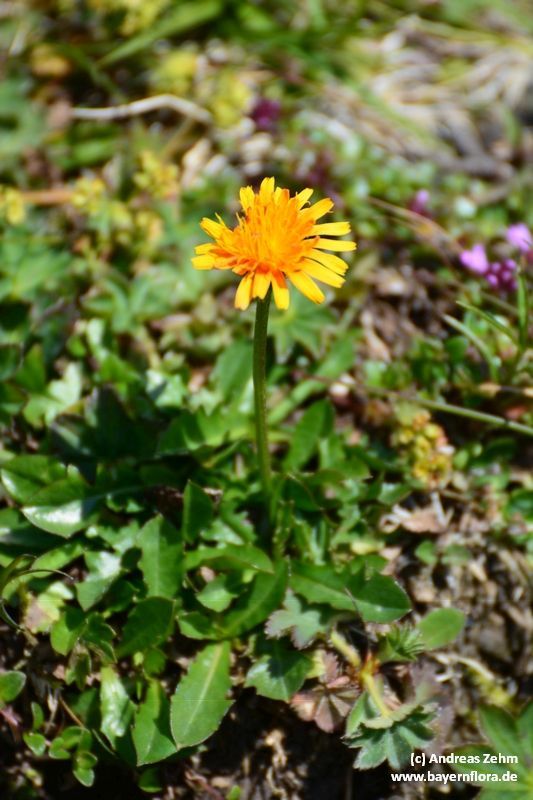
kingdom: Plantae
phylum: Tracheophyta
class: Magnoliopsida
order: Asterales
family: Asteraceae
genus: Crepis
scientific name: Crepis aurea
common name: Golden hawk's-beard
